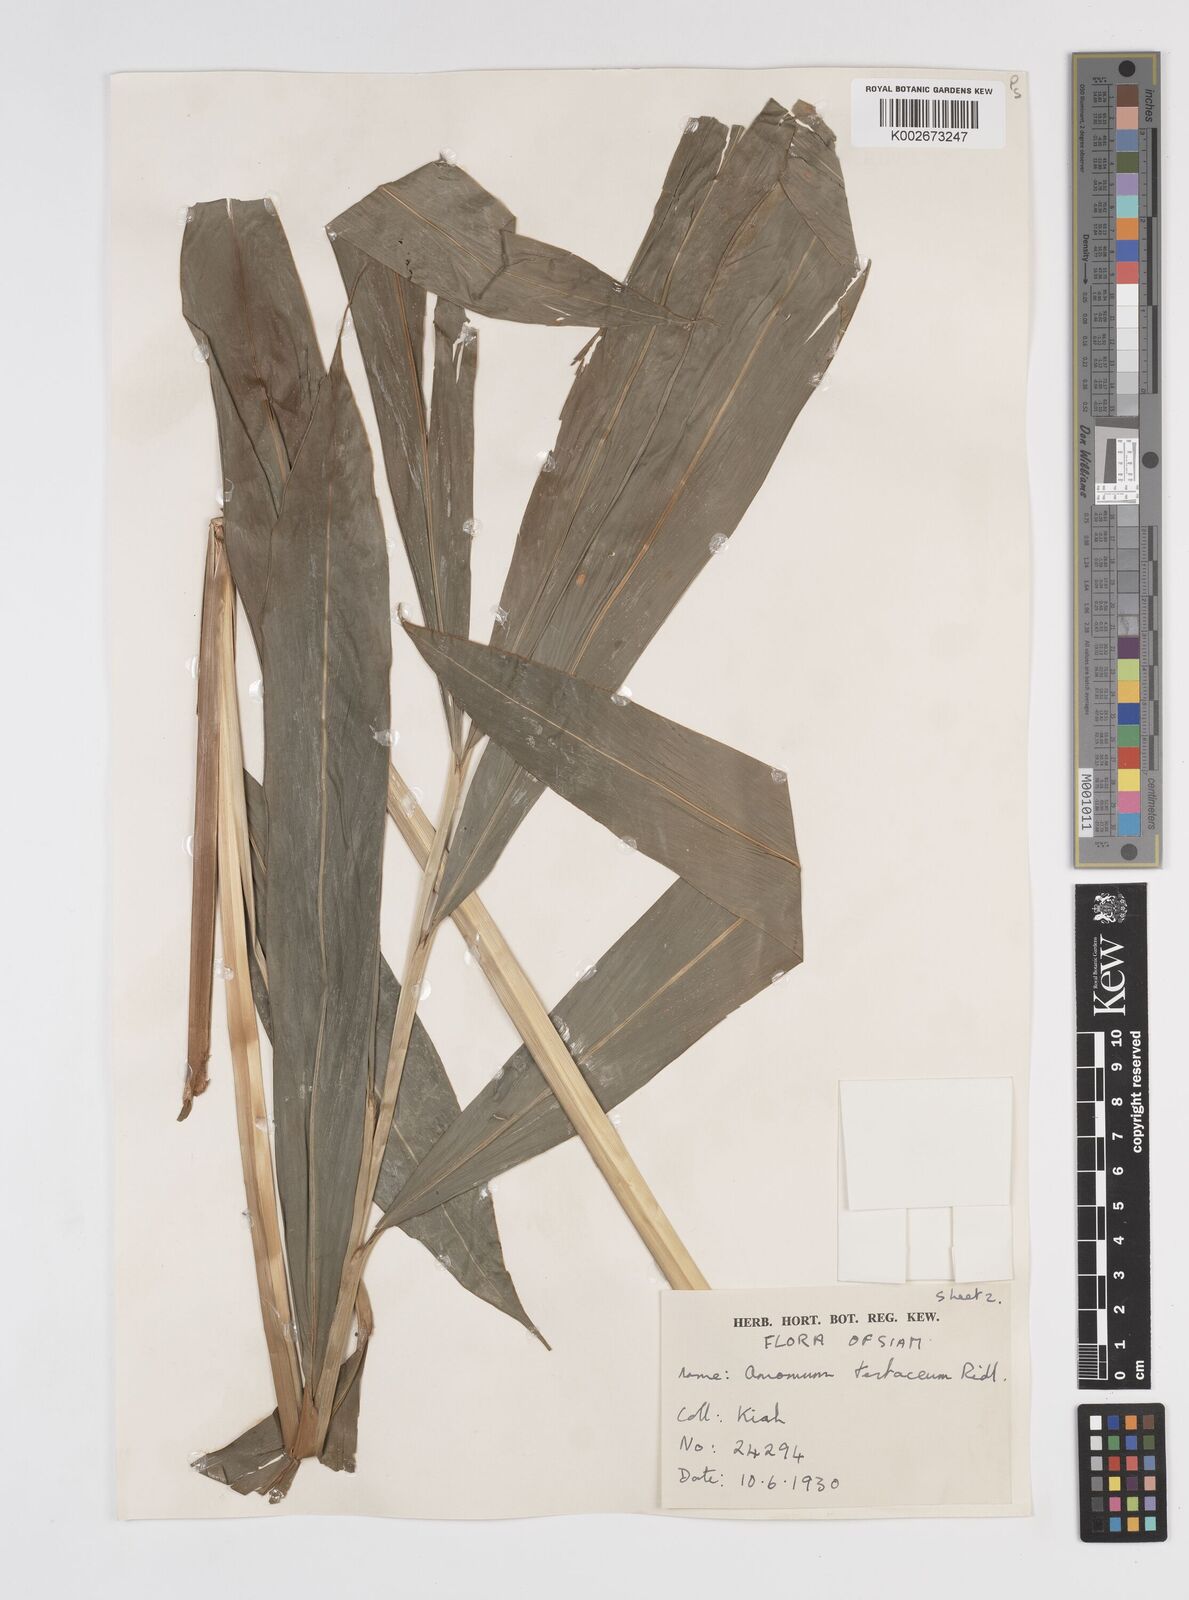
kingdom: Plantae
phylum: Tracheophyta
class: Liliopsida
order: Zingiberales
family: Zingiberaceae
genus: Wurfbainia
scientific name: Wurfbainia testacea
